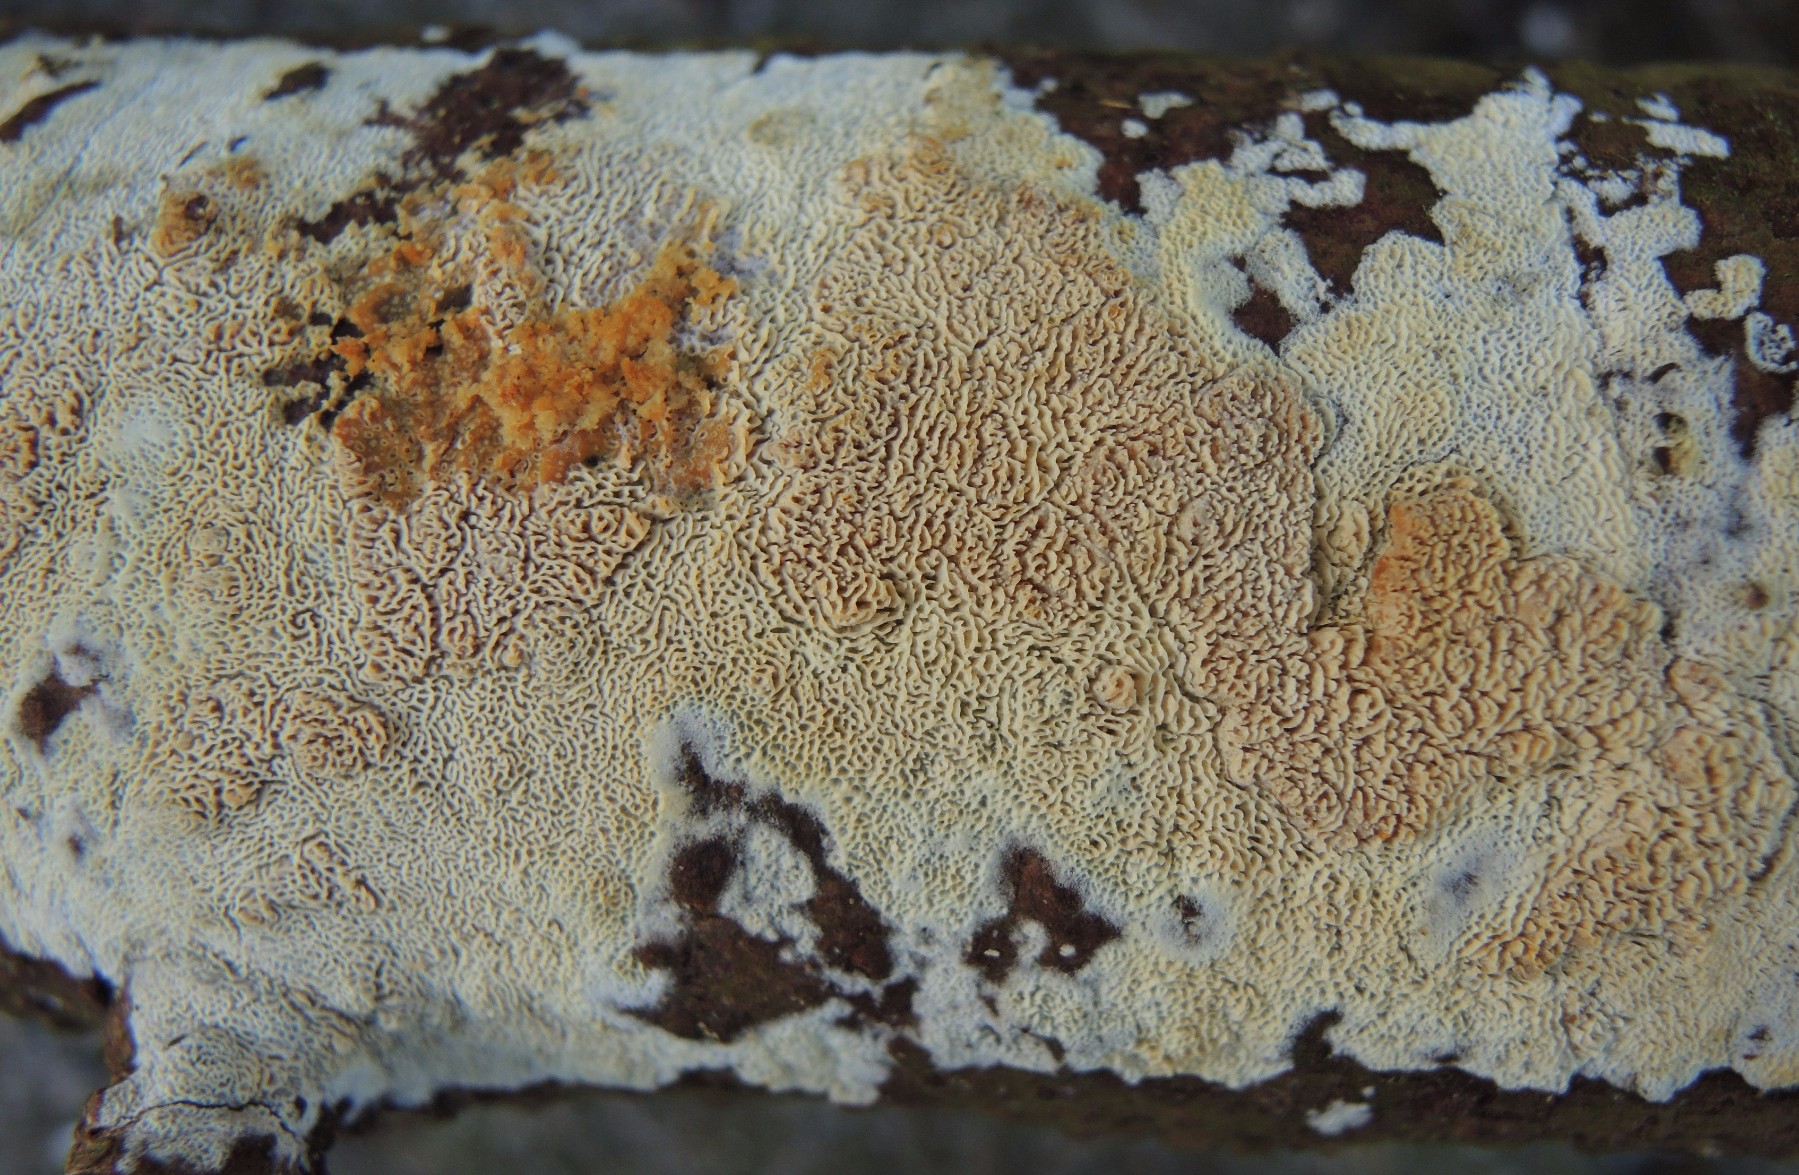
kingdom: Fungi
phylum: Basidiomycota
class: Agaricomycetes
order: Hymenochaetales
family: Schizoporaceae
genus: Xylodon
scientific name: Xylodon subtropicus
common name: labyrint-tandsvamp
